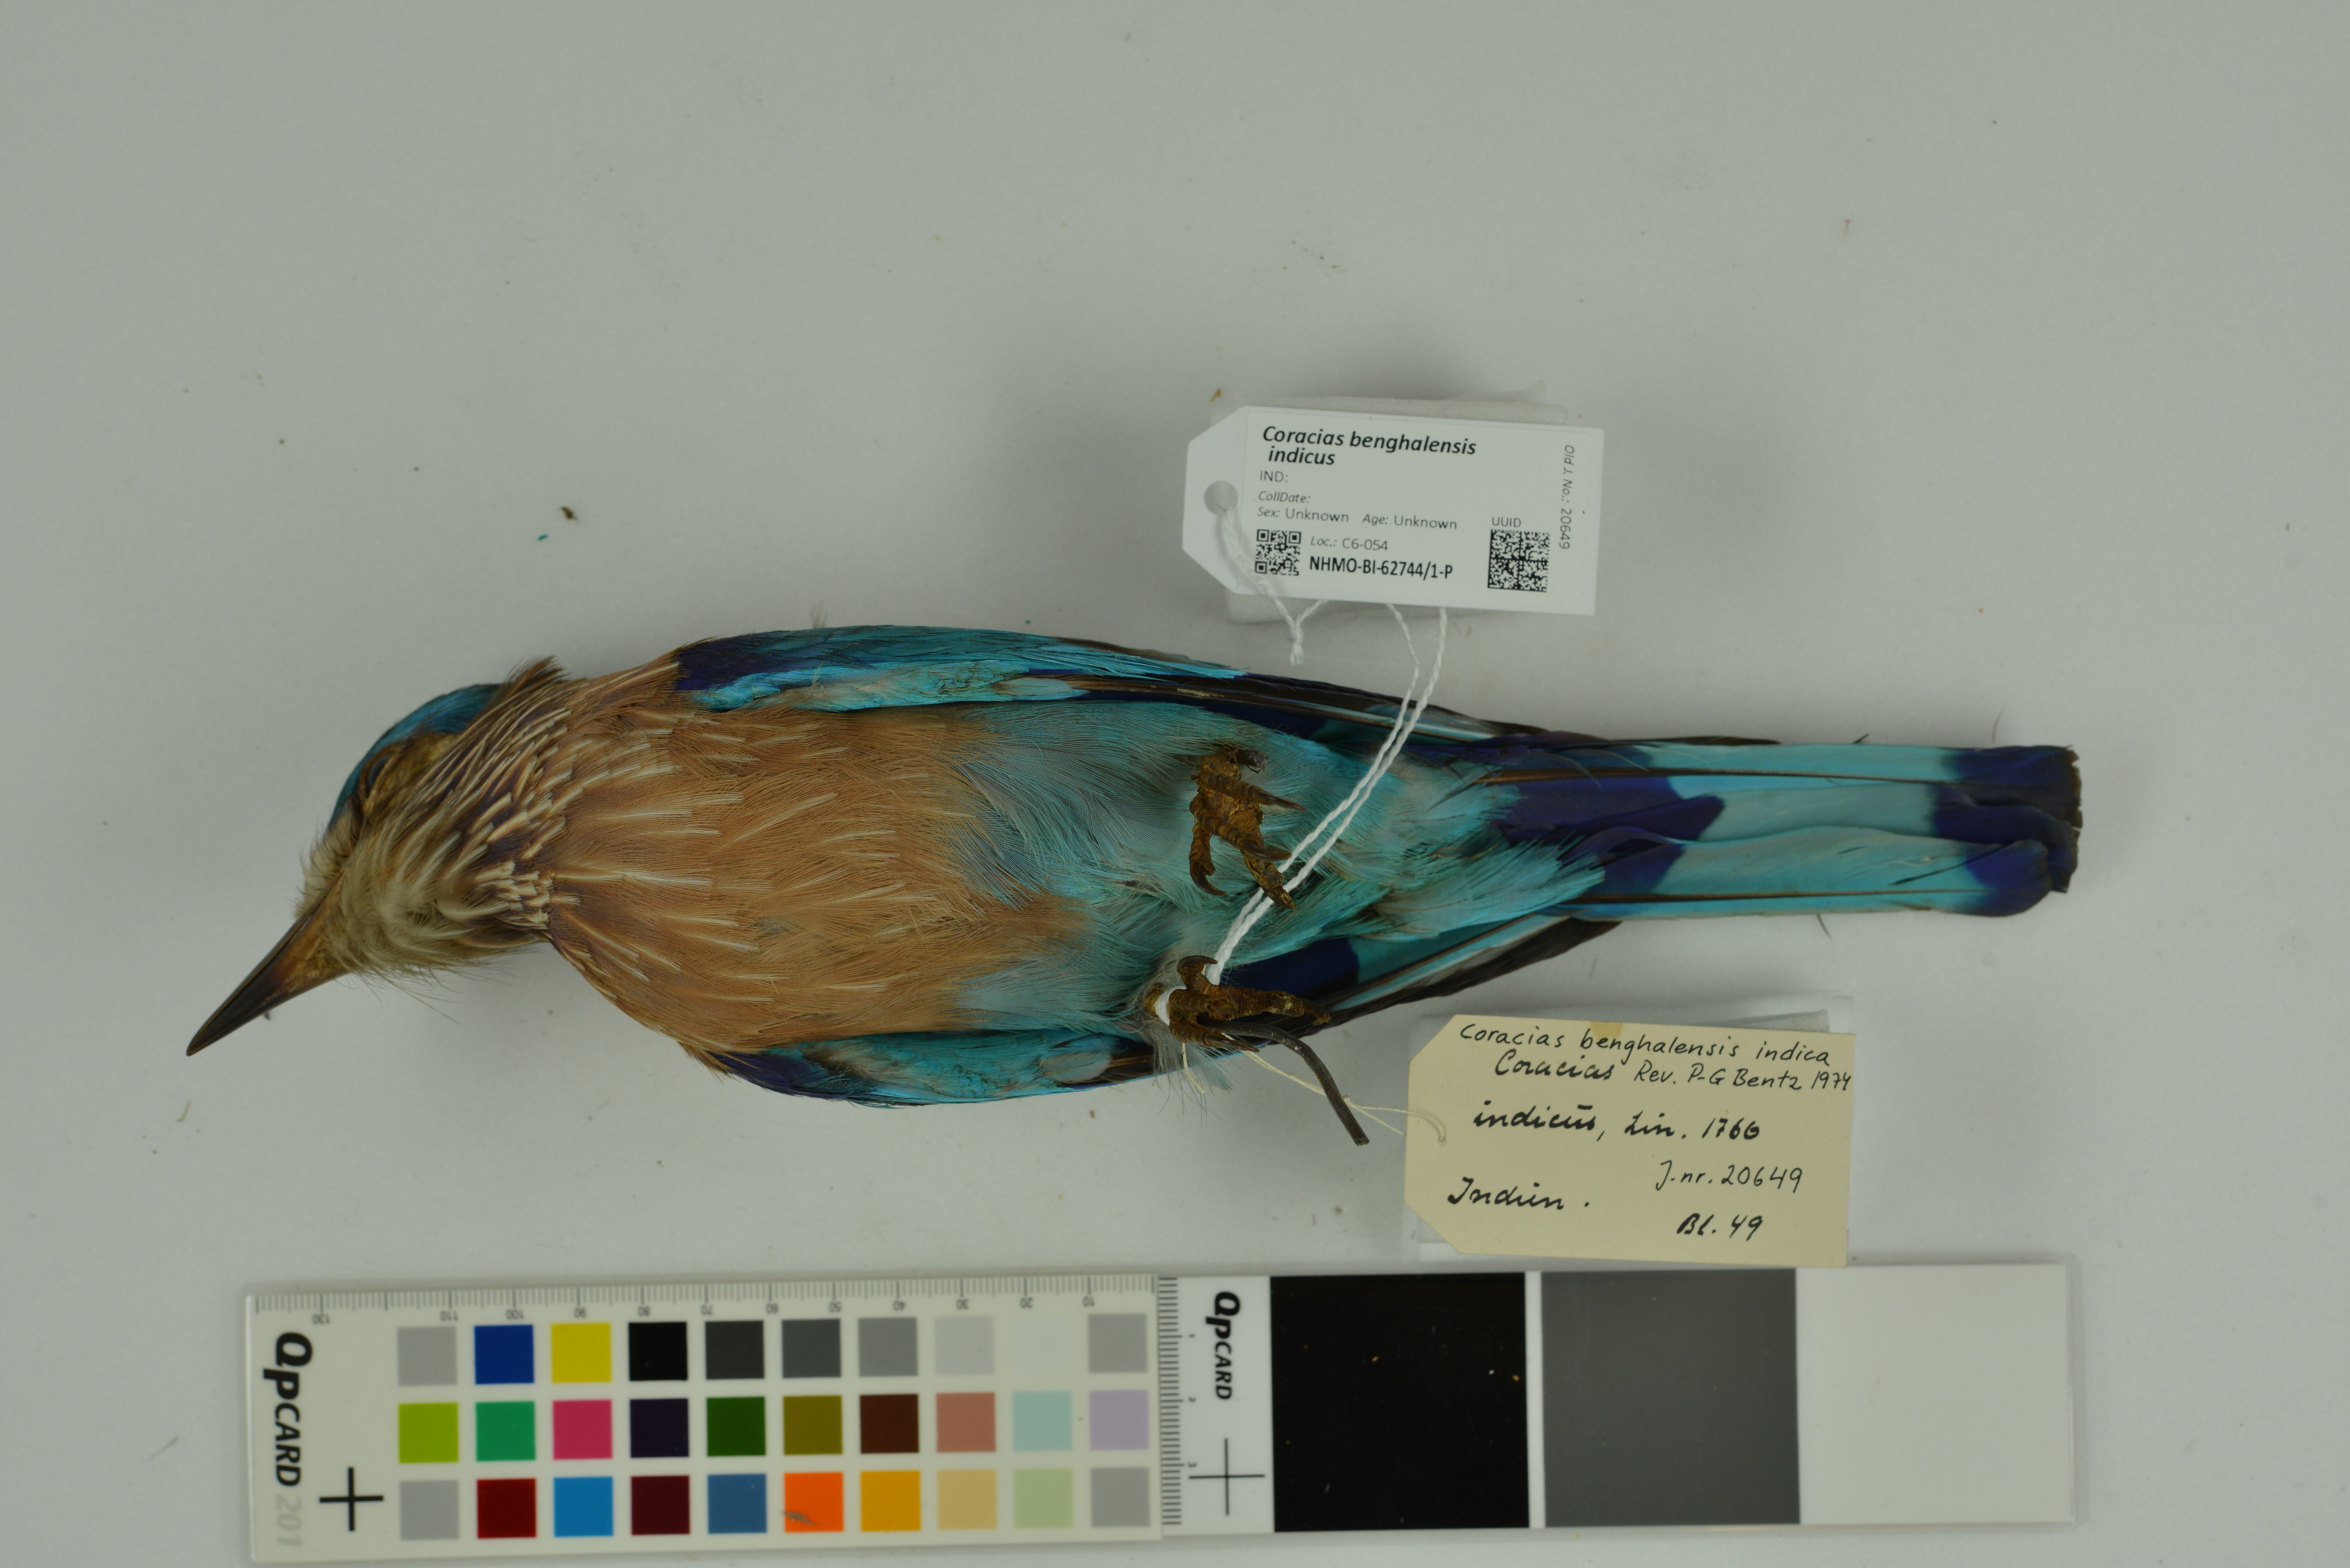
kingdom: Animalia
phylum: Chordata
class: Aves
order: Coraciiformes
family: Coraciidae
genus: Coracias
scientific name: Coracias benghalensis
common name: Indian roller
